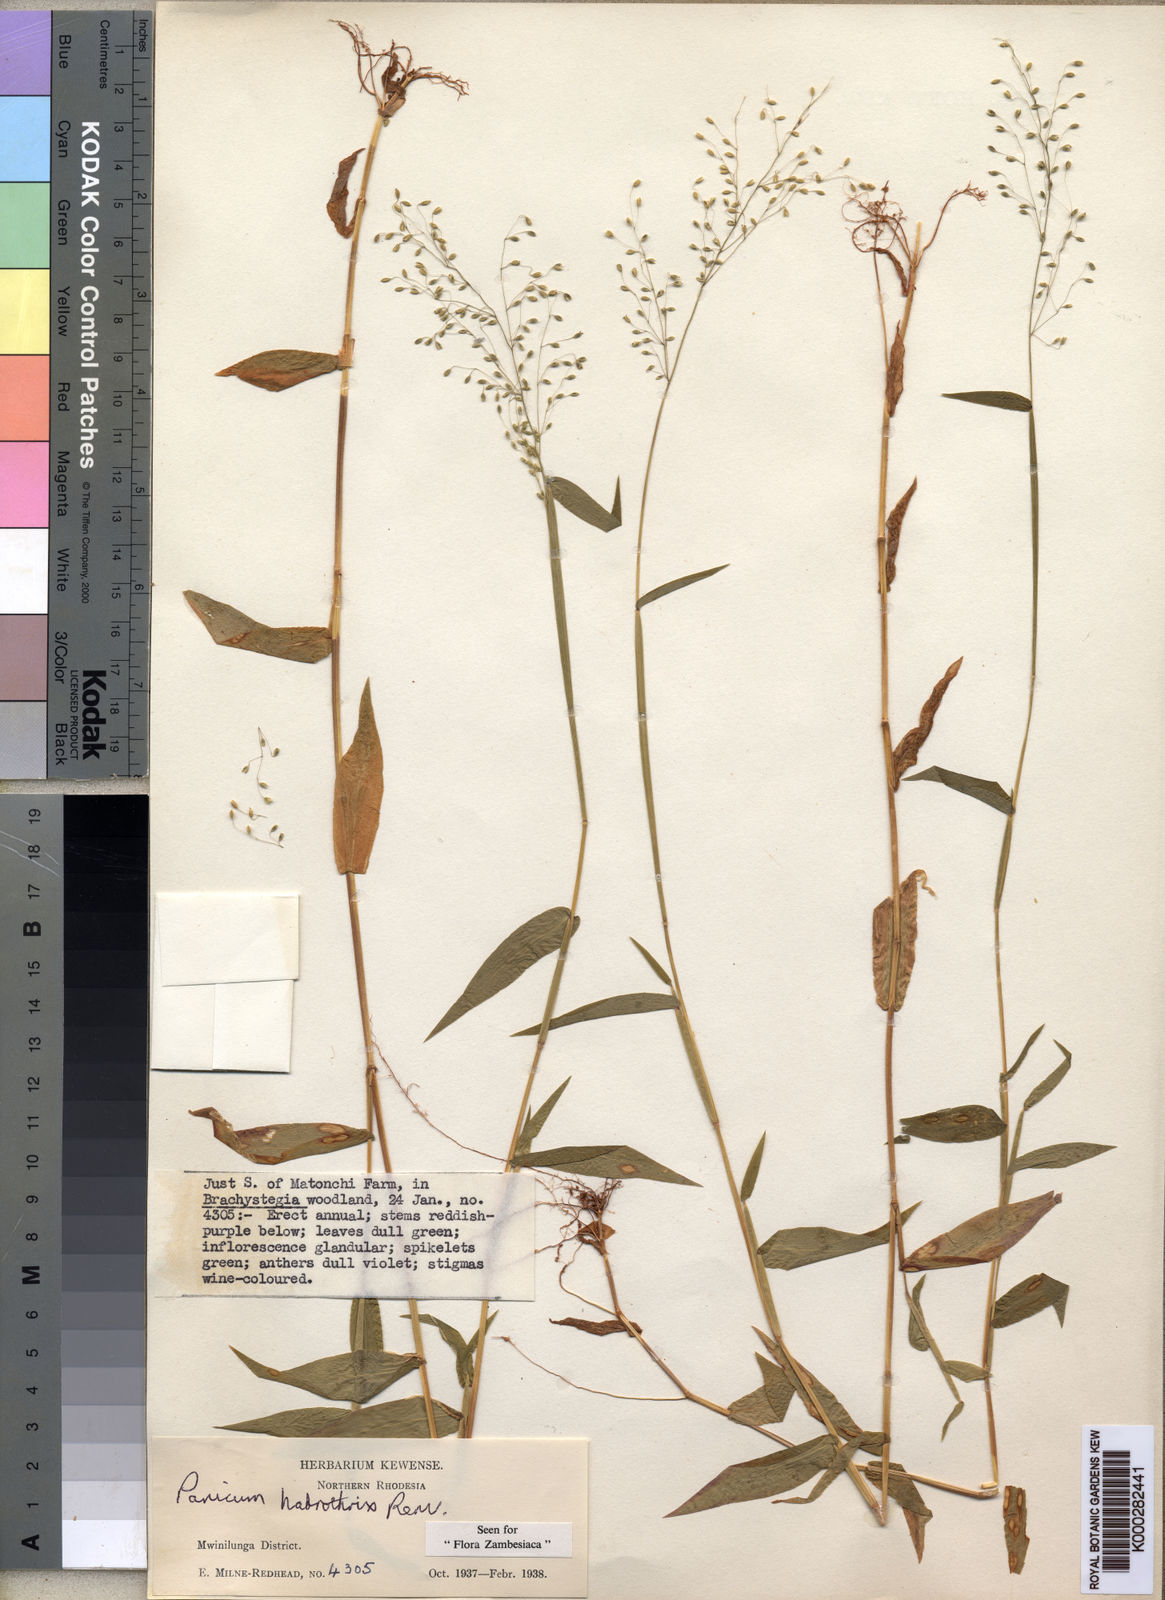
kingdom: Plantae
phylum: Tracheophyta
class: Liliopsida
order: Poales
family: Poaceae
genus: Panicum
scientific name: Panicum
